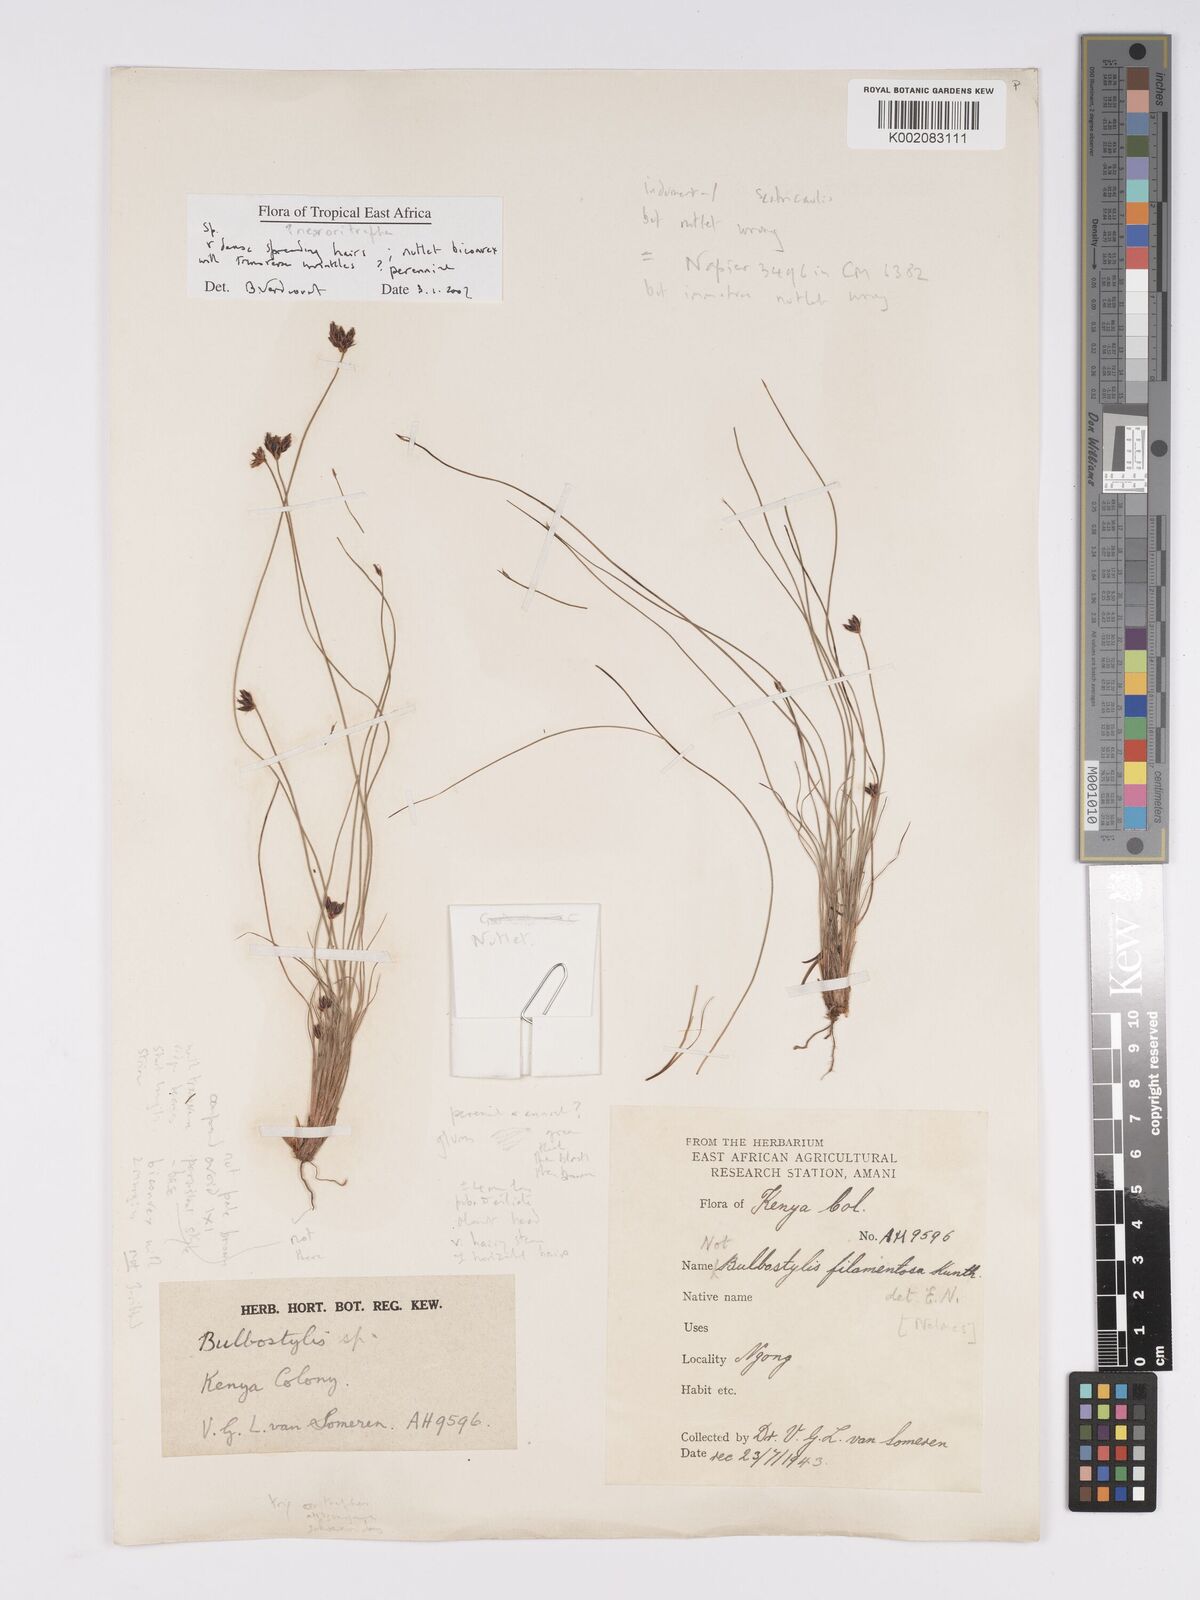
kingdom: Plantae
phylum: Tracheophyta
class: Magnoliopsida
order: Asterales
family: Asteraceae
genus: Bulbostylis
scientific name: Bulbostylis
